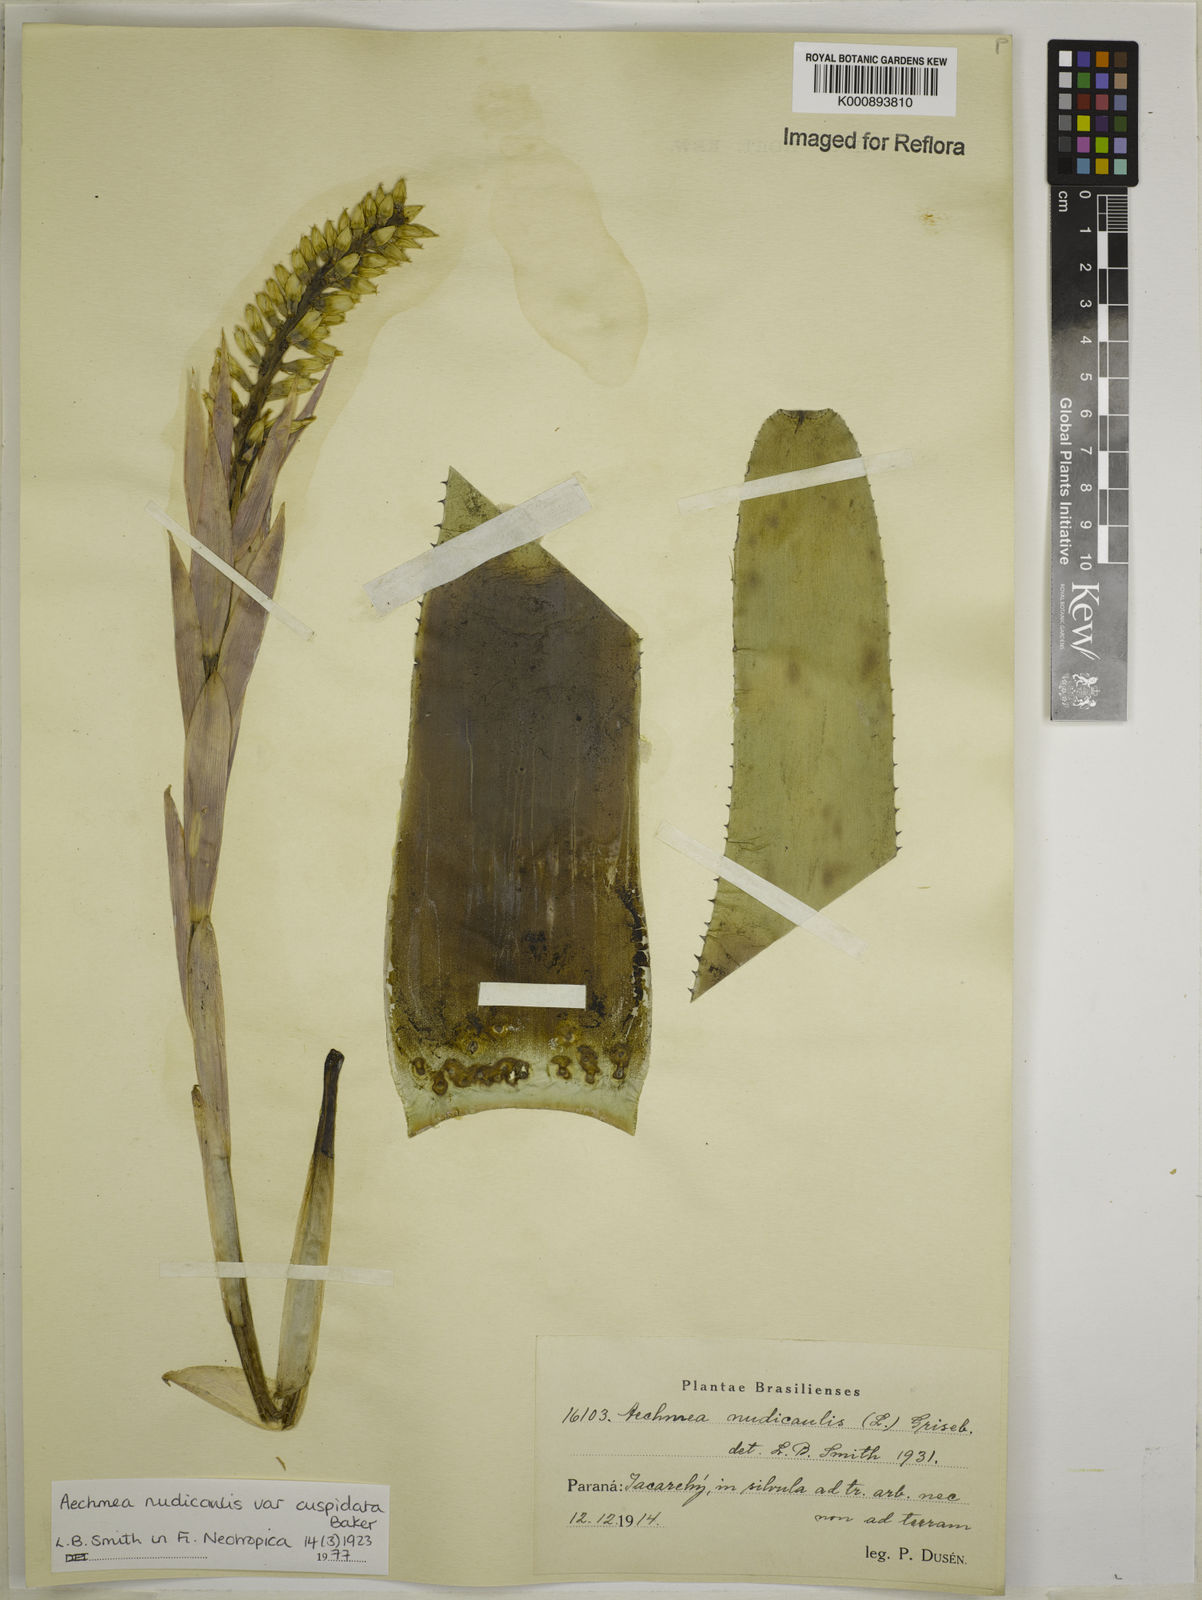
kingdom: Plantae
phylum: Tracheophyta
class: Liliopsida
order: Poales
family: Bromeliaceae
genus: Aechmea
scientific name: Aechmea nudicaulis
